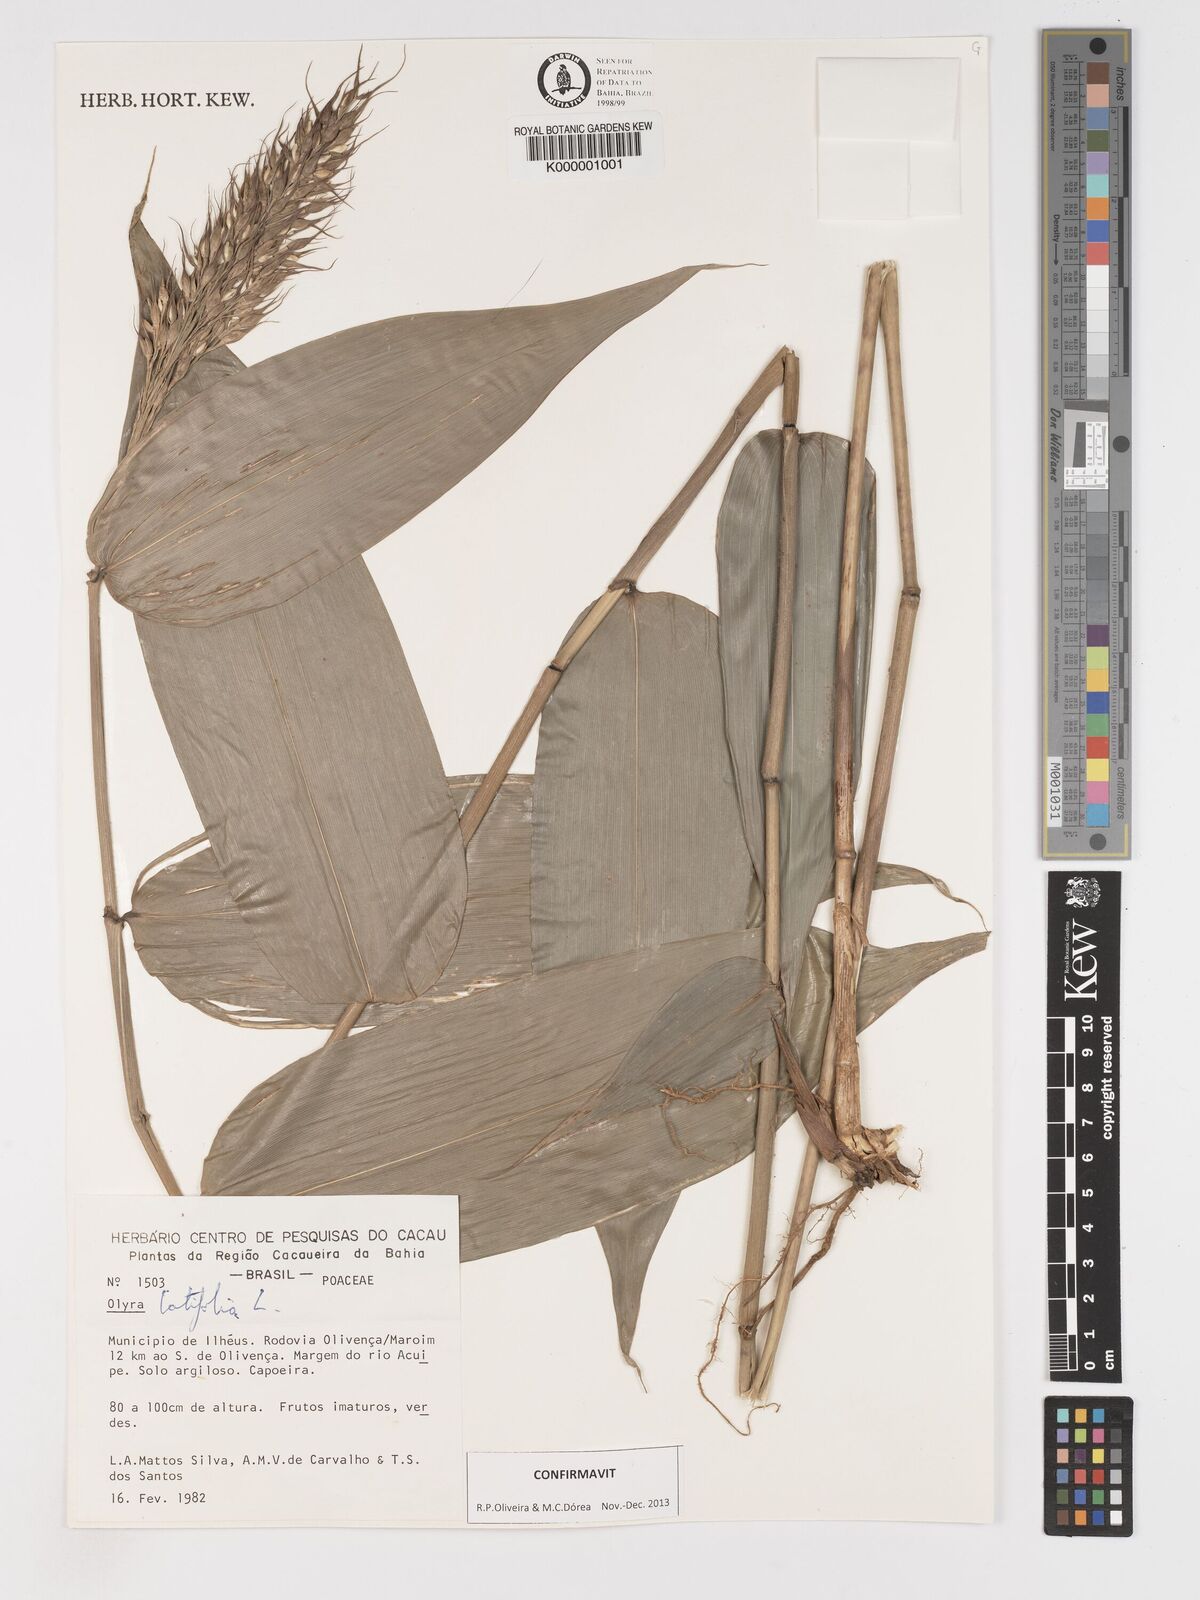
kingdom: Plantae
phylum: Tracheophyta
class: Liliopsida
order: Poales
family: Poaceae
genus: Olyra
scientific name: Olyra latifolia
